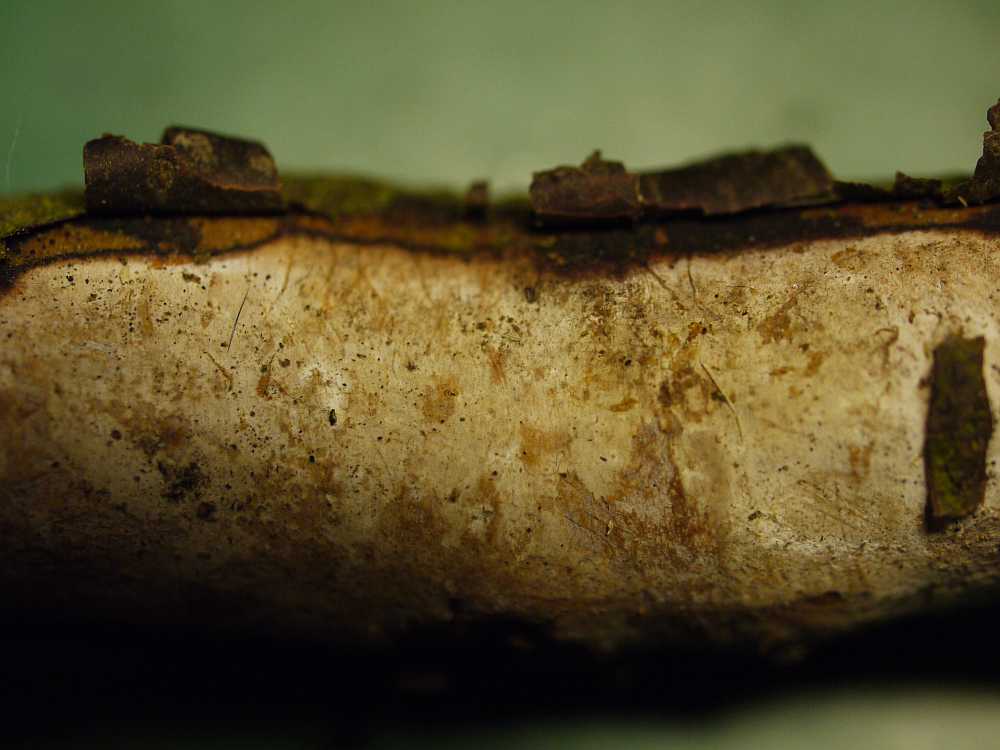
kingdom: Fungi
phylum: Basidiomycota
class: Agaricomycetes
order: Corticiales
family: Vuilleminiaceae
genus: Vuilleminia
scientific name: Vuilleminia cystidiata
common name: tjørne-barksprænger
